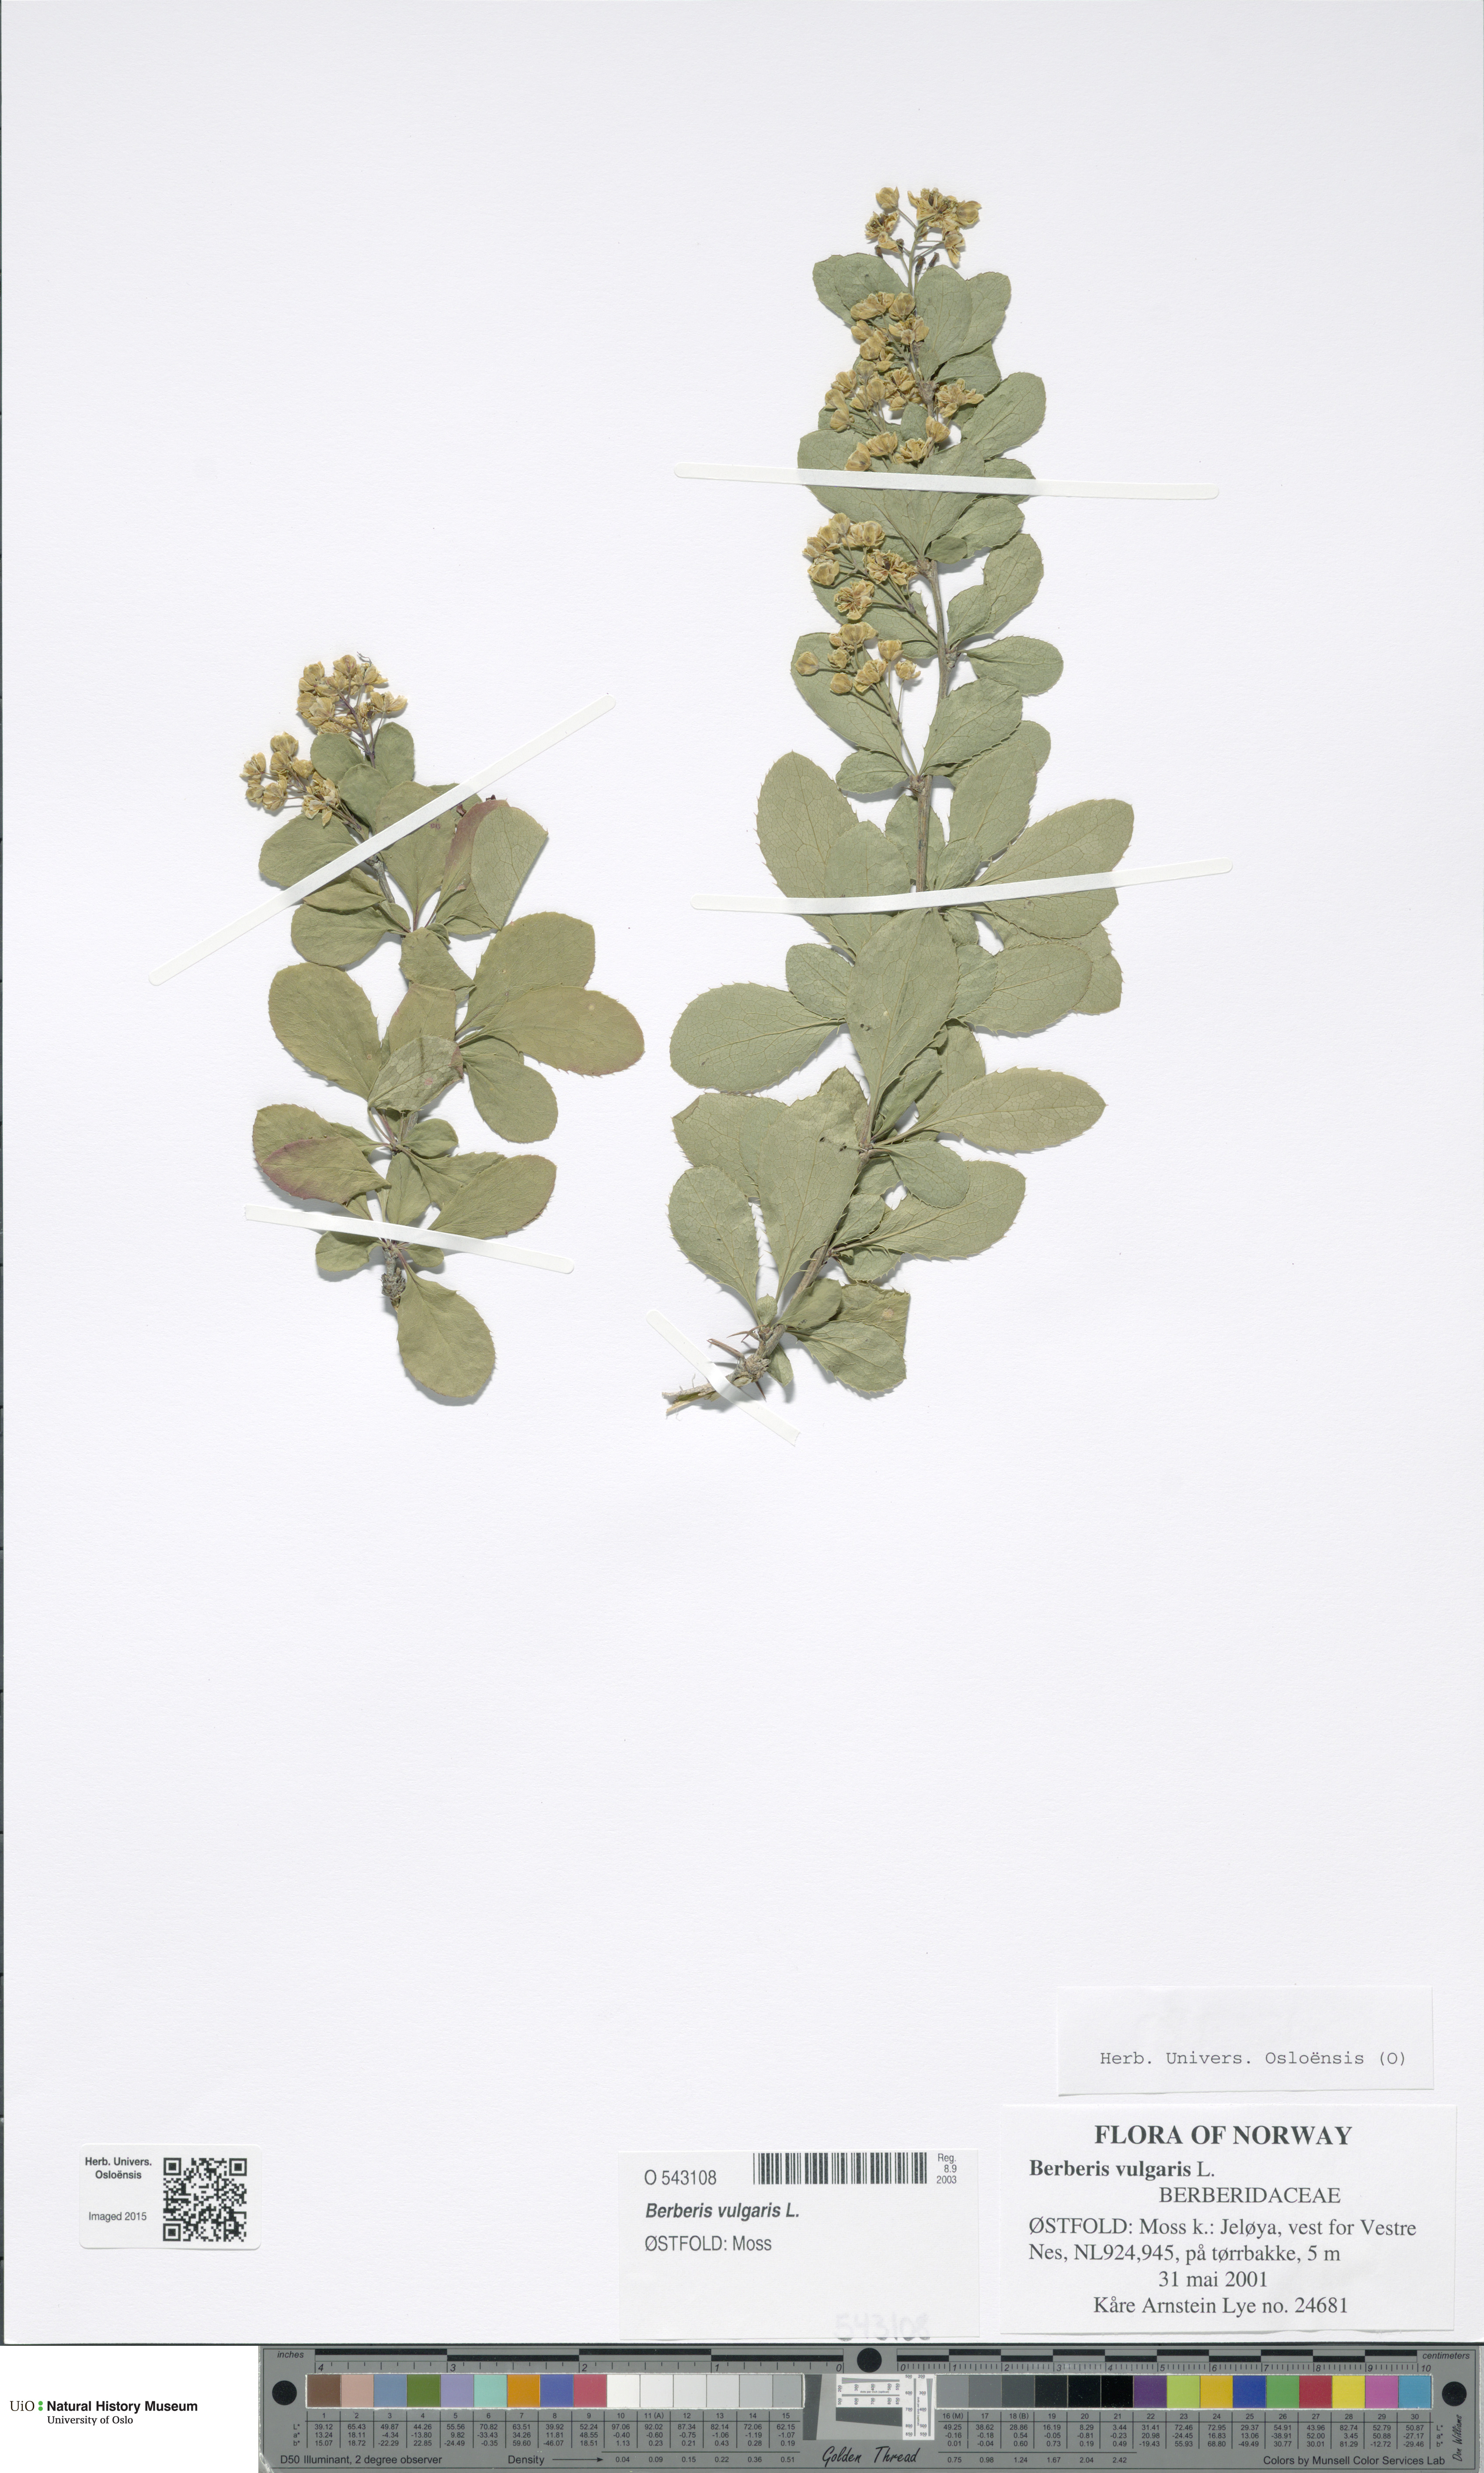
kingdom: Plantae
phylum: Tracheophyta
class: Magnoliopsida
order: Ranunculales
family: Berberidaceae
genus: Berberis
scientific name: Berberis vulgaris
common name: Barberry
